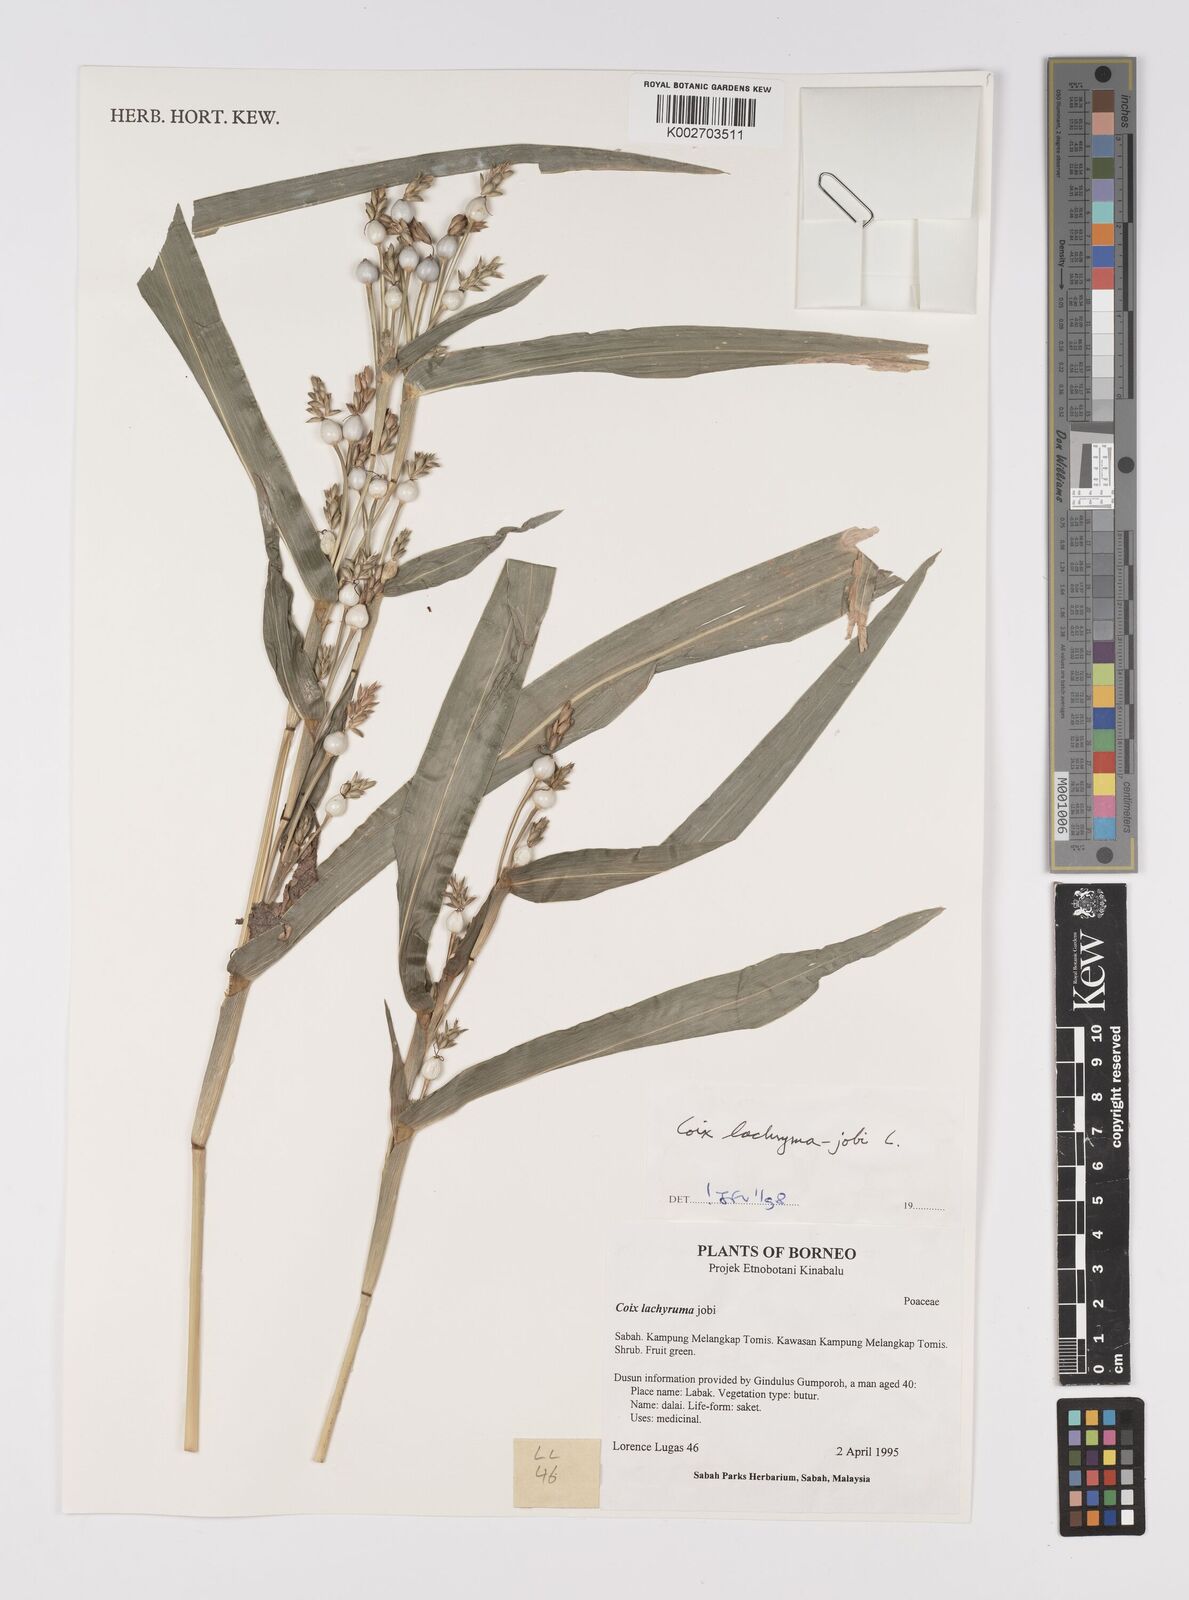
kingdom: Plantae
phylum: Tracheophyta
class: Liliopsida
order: Poales
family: Poaceae
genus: Coix
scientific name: Coix lacryma-jobi
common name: Job's tears
